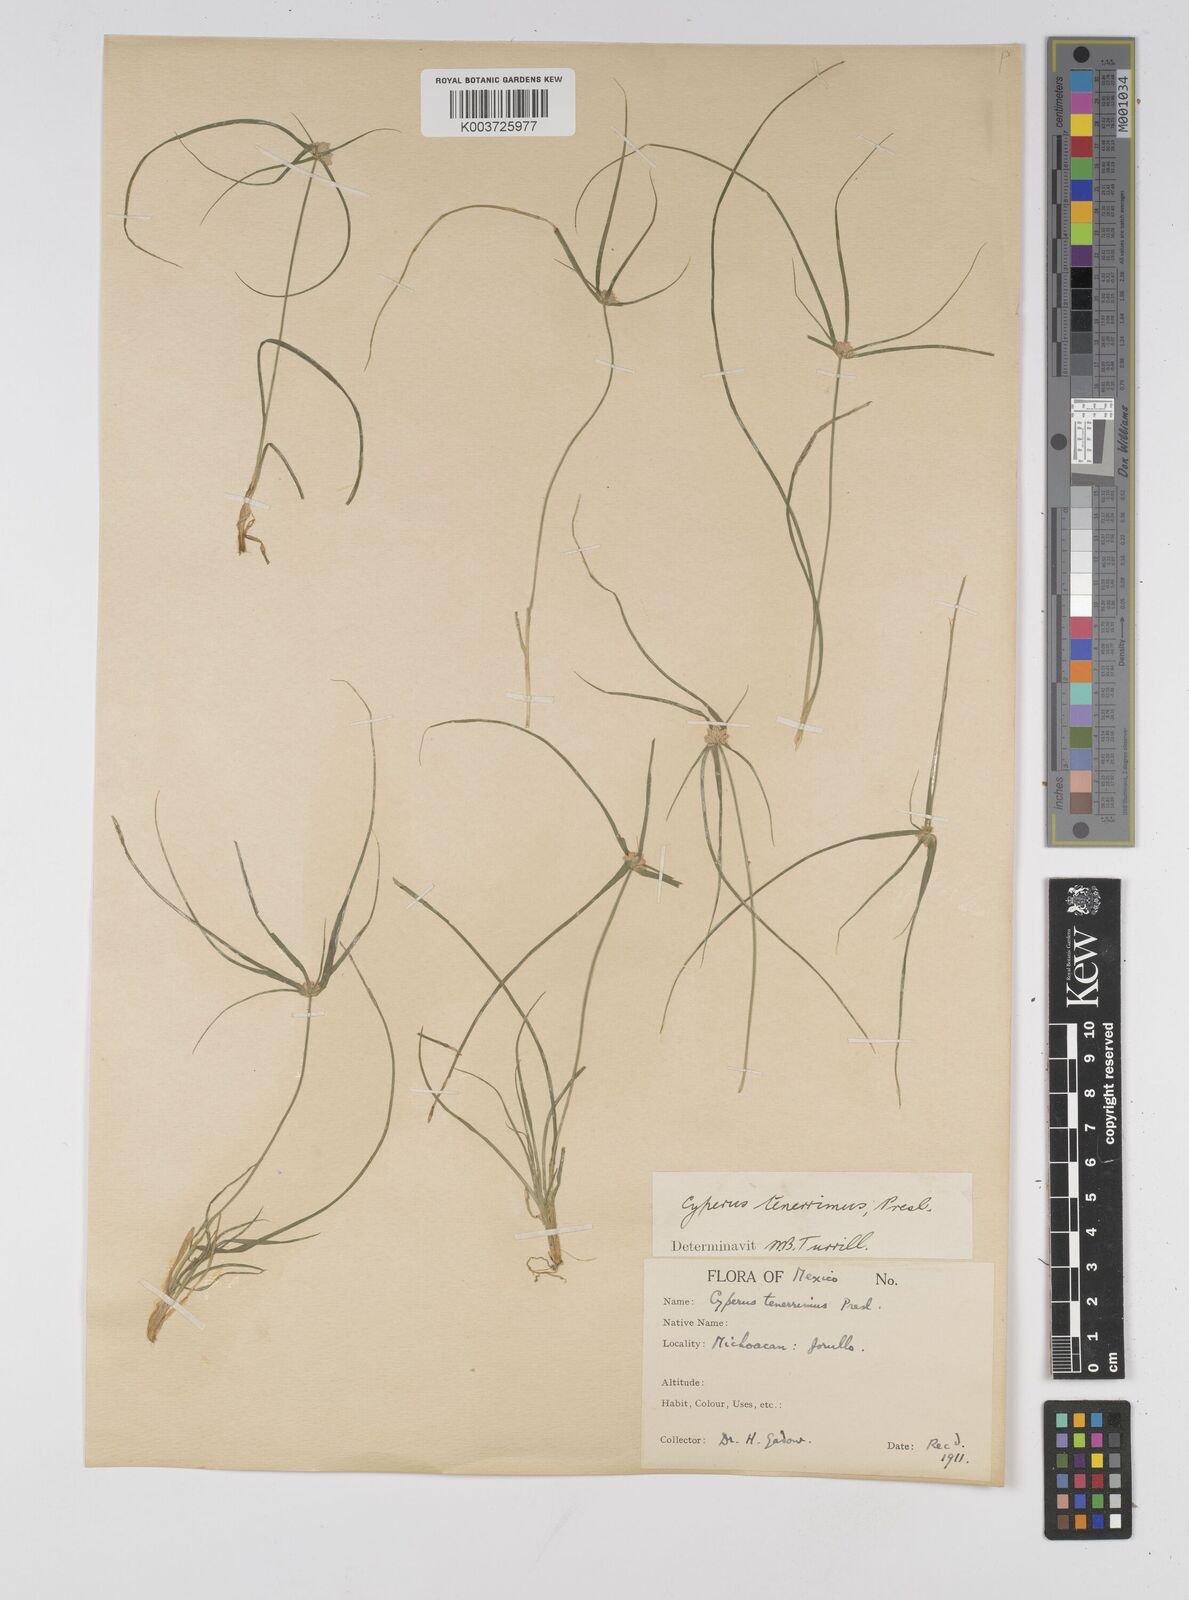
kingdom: Plantae
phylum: Tracheophyta
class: Liliopsida
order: Poales
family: Cyperaceae
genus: Cyperus
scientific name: Cyperus tenerrimus
